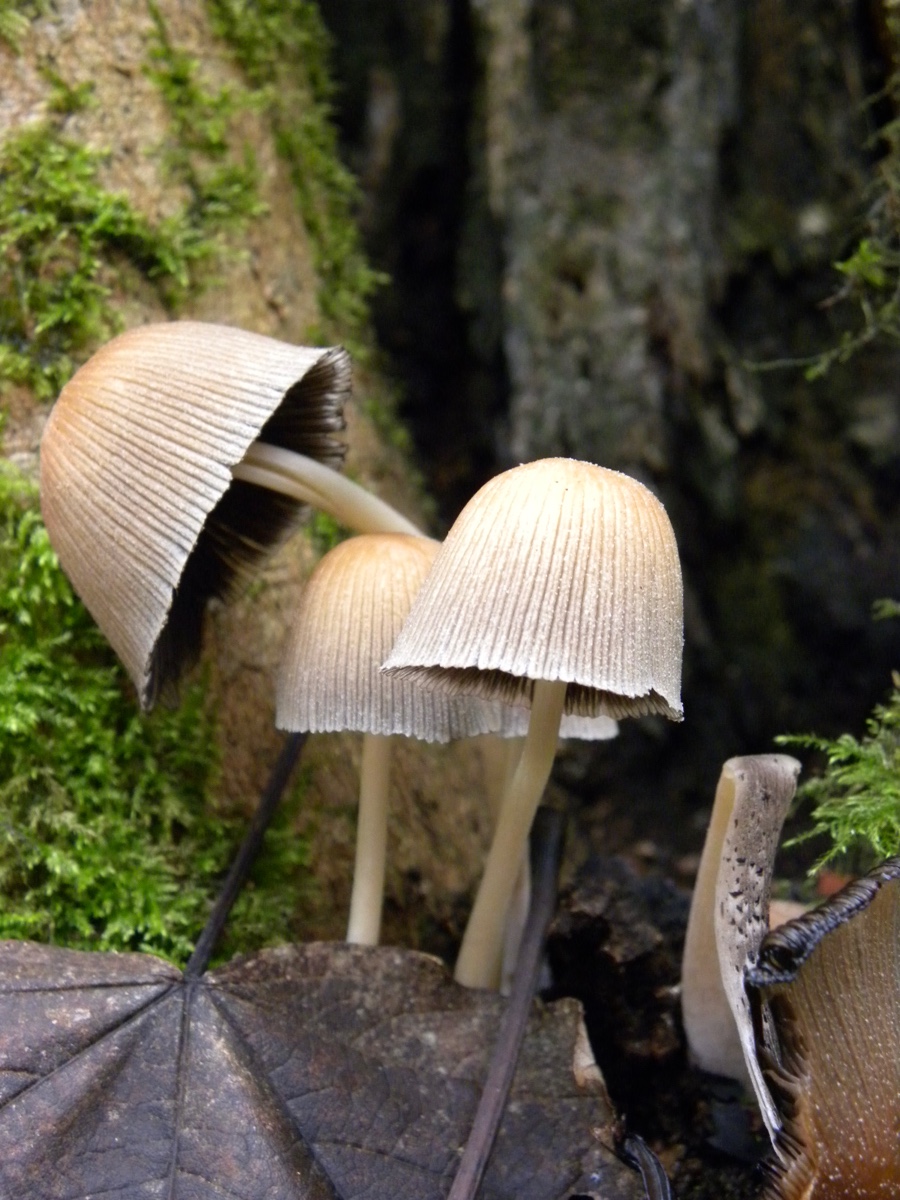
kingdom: Fungi
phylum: Basidiomycota
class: Agaricomycetes
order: Agaricales
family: Psathyrellaceae
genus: Coprinellus
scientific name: Coprinellus
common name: blækhat
